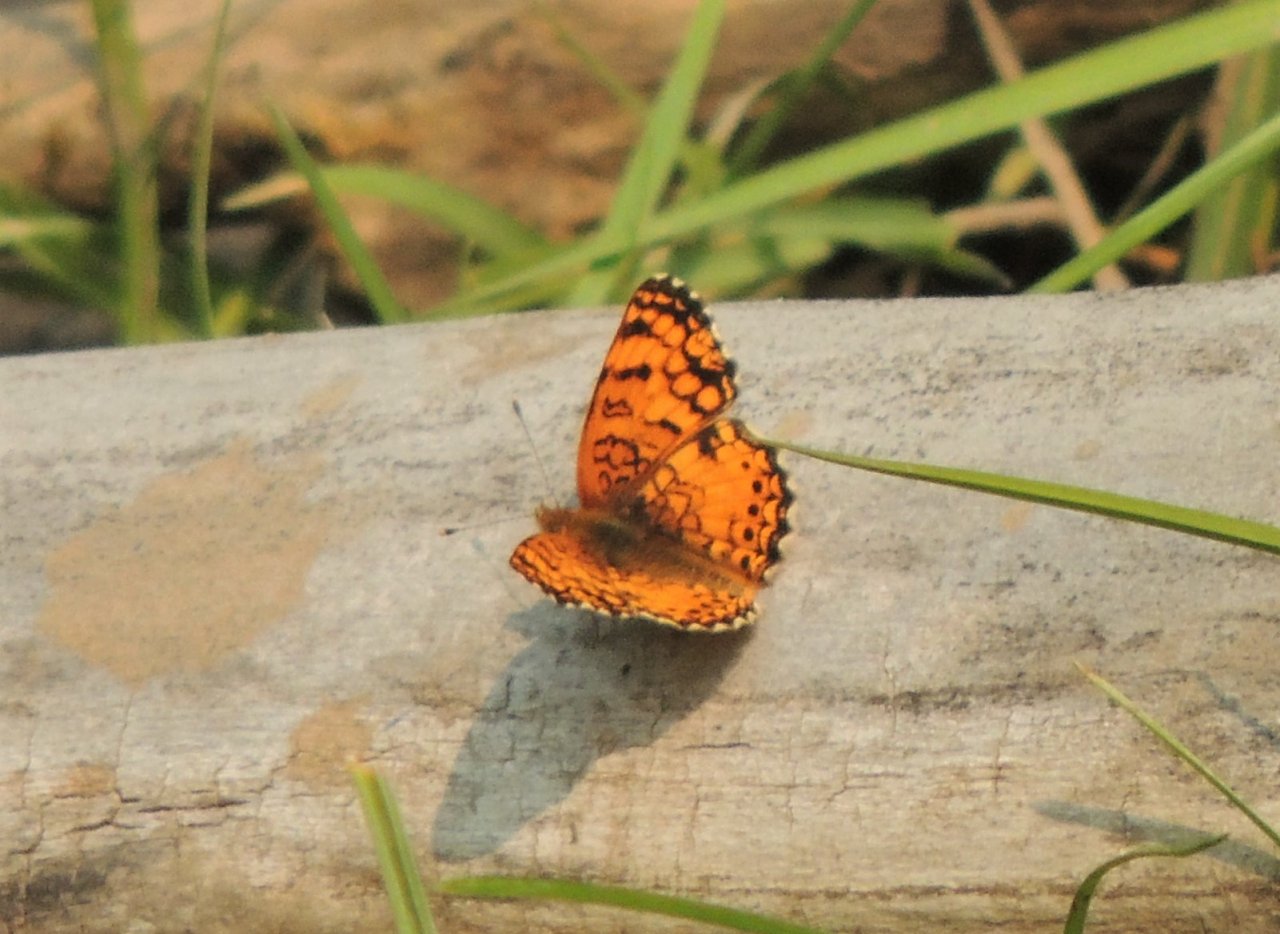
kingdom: Animalia
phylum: Arthropoda
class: Insecta
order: Lepidoptera
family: Nymphalidae
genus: Eresia
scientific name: Eresia aveyrona
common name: Mylitta Crescent
